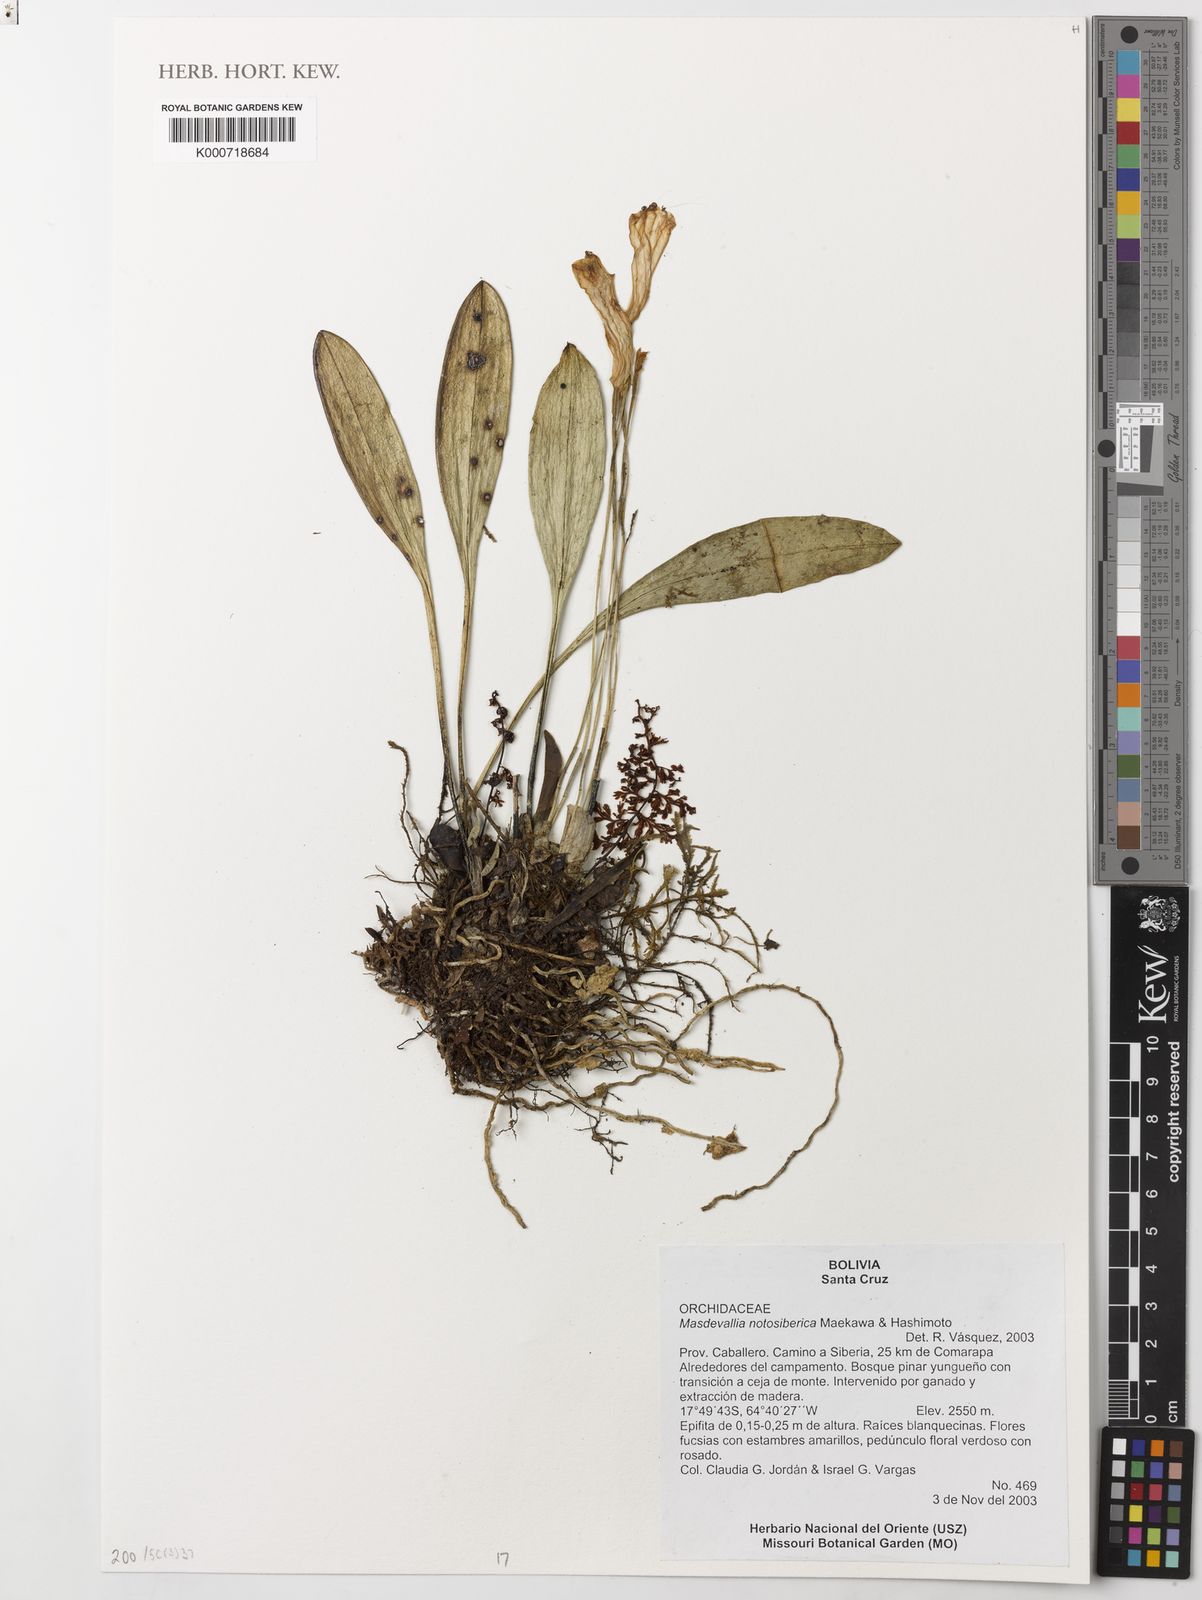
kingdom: Plantae
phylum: Tracheophyta
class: Liliopsida
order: Asparagales
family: Orchidaceae
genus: Masdevallia
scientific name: Masdevallia notosibirica
